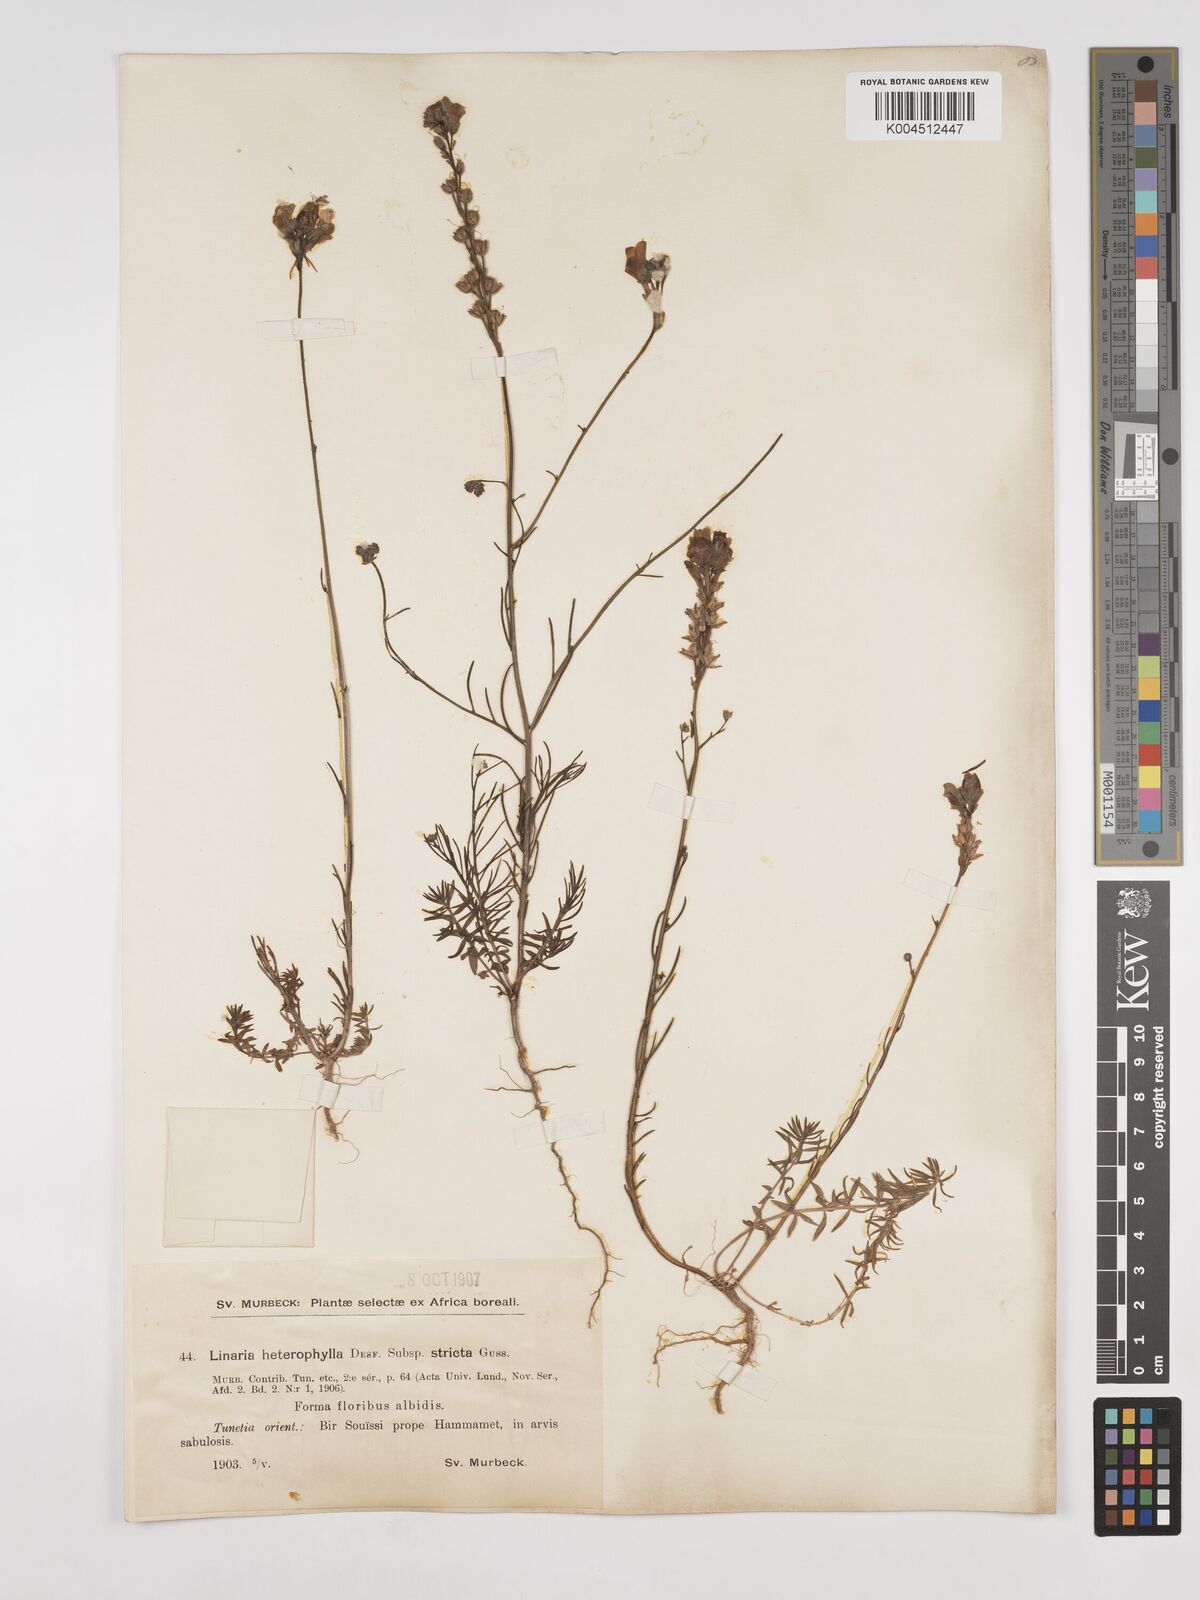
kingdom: Plantae
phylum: Tracheophyta
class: Magnoliopsida
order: Lamiales
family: Plantaginaceae
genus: Linaria
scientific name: Linaria multicaulis
